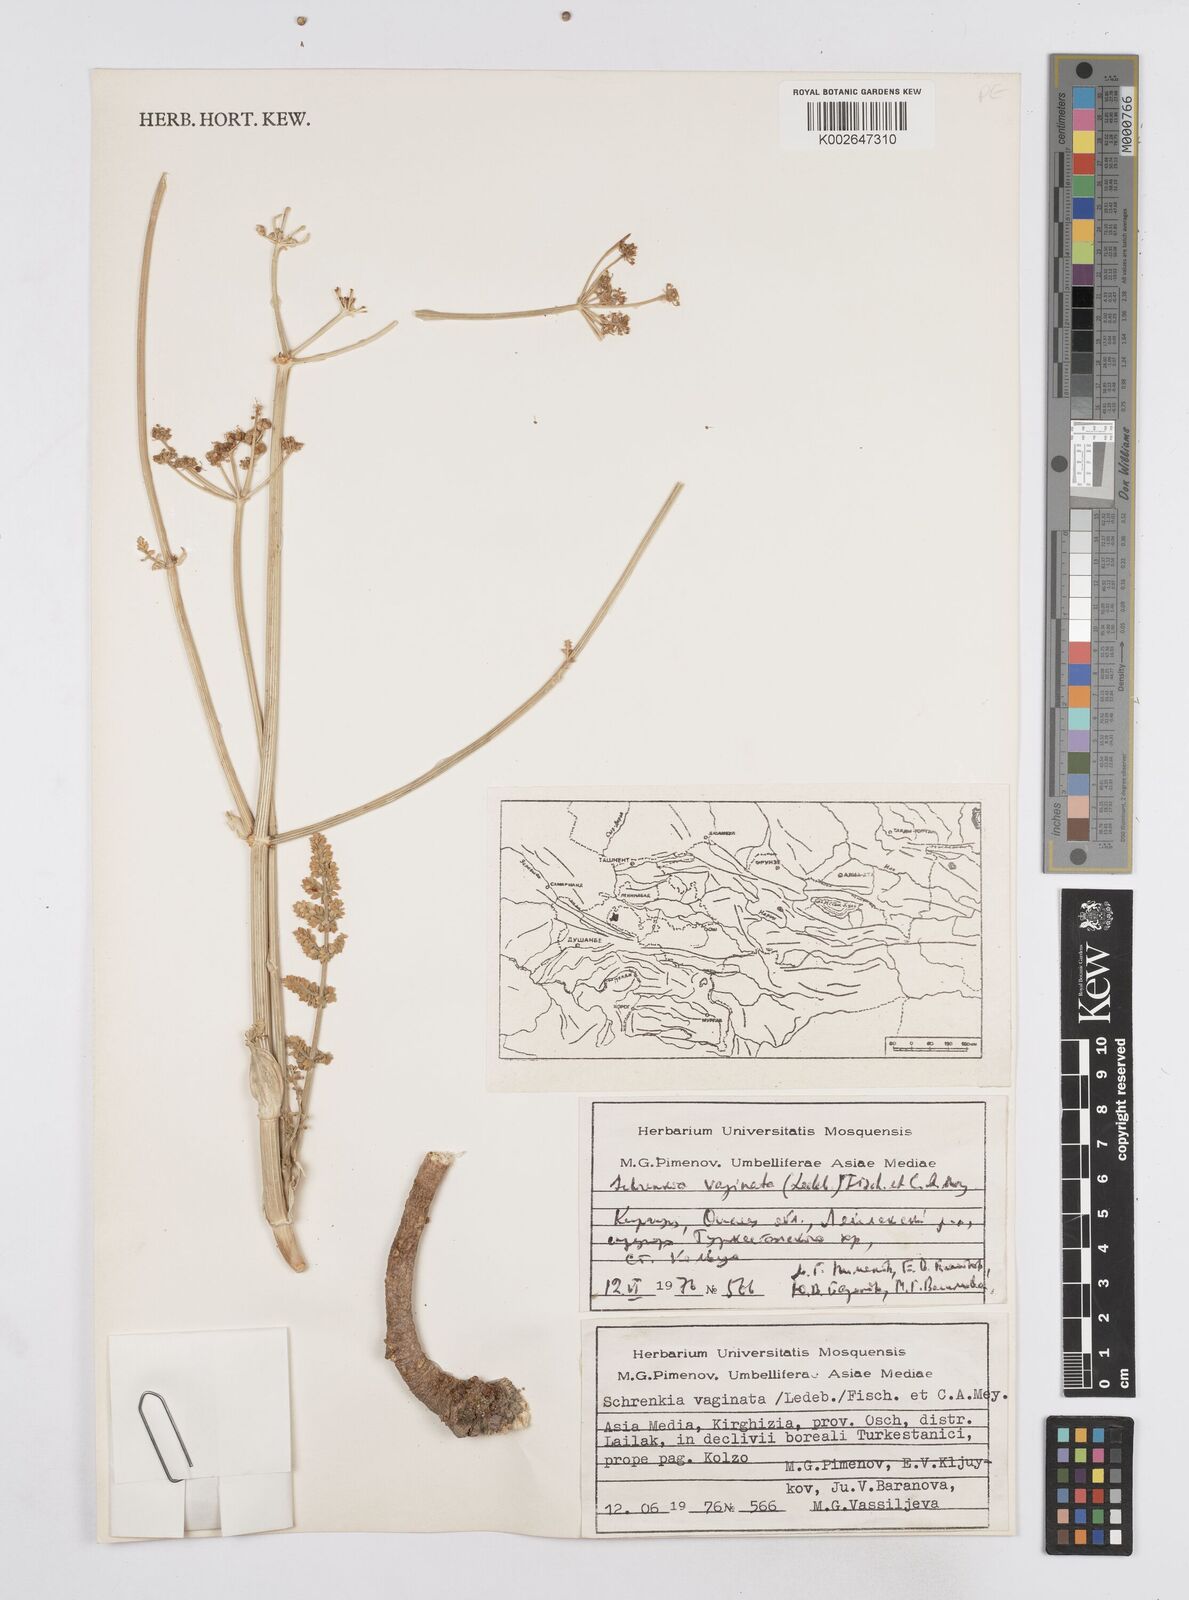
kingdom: Plantae
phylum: Tracheophyta
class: Magnoliopsida
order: Apiales
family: Apiaceae
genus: Schrenkia
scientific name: Schrenkia vaginata
